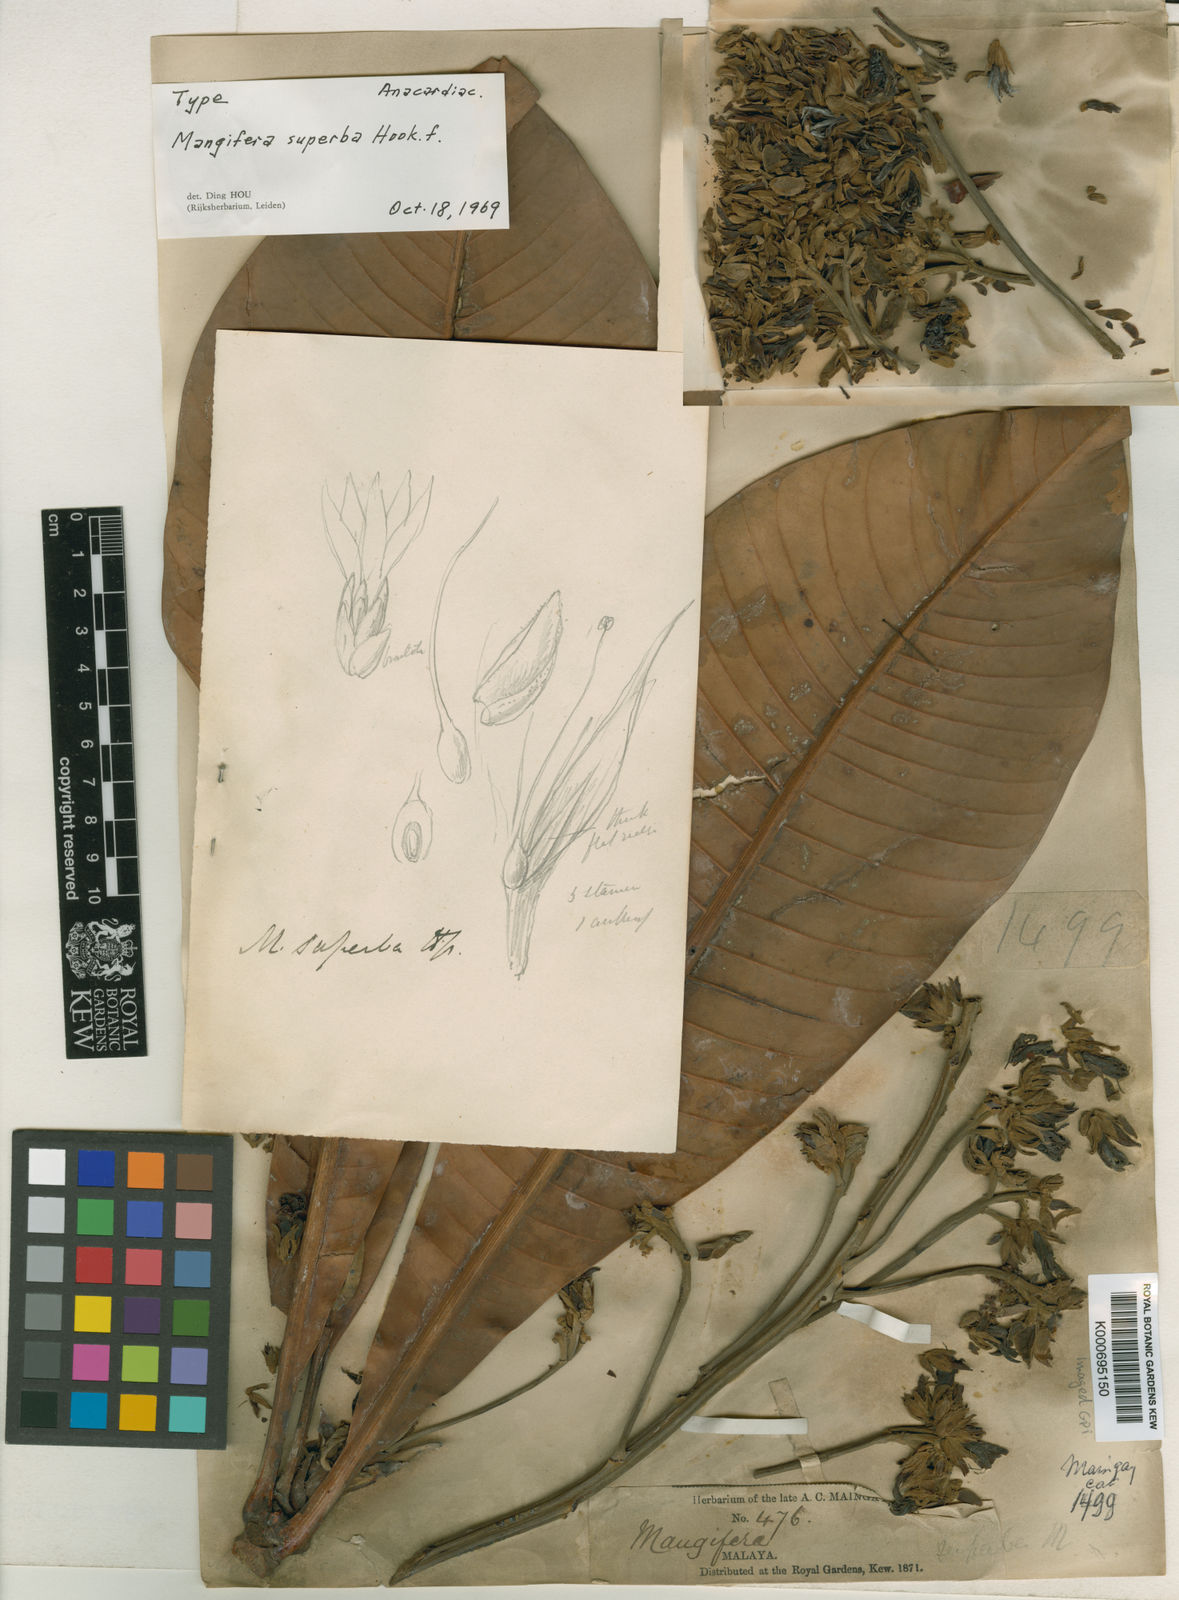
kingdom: Plantae
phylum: Tracheophyta
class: Magnoliopsida
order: Sapindales
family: Anacardiaceae
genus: Mangifera
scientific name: Mangifera superba
